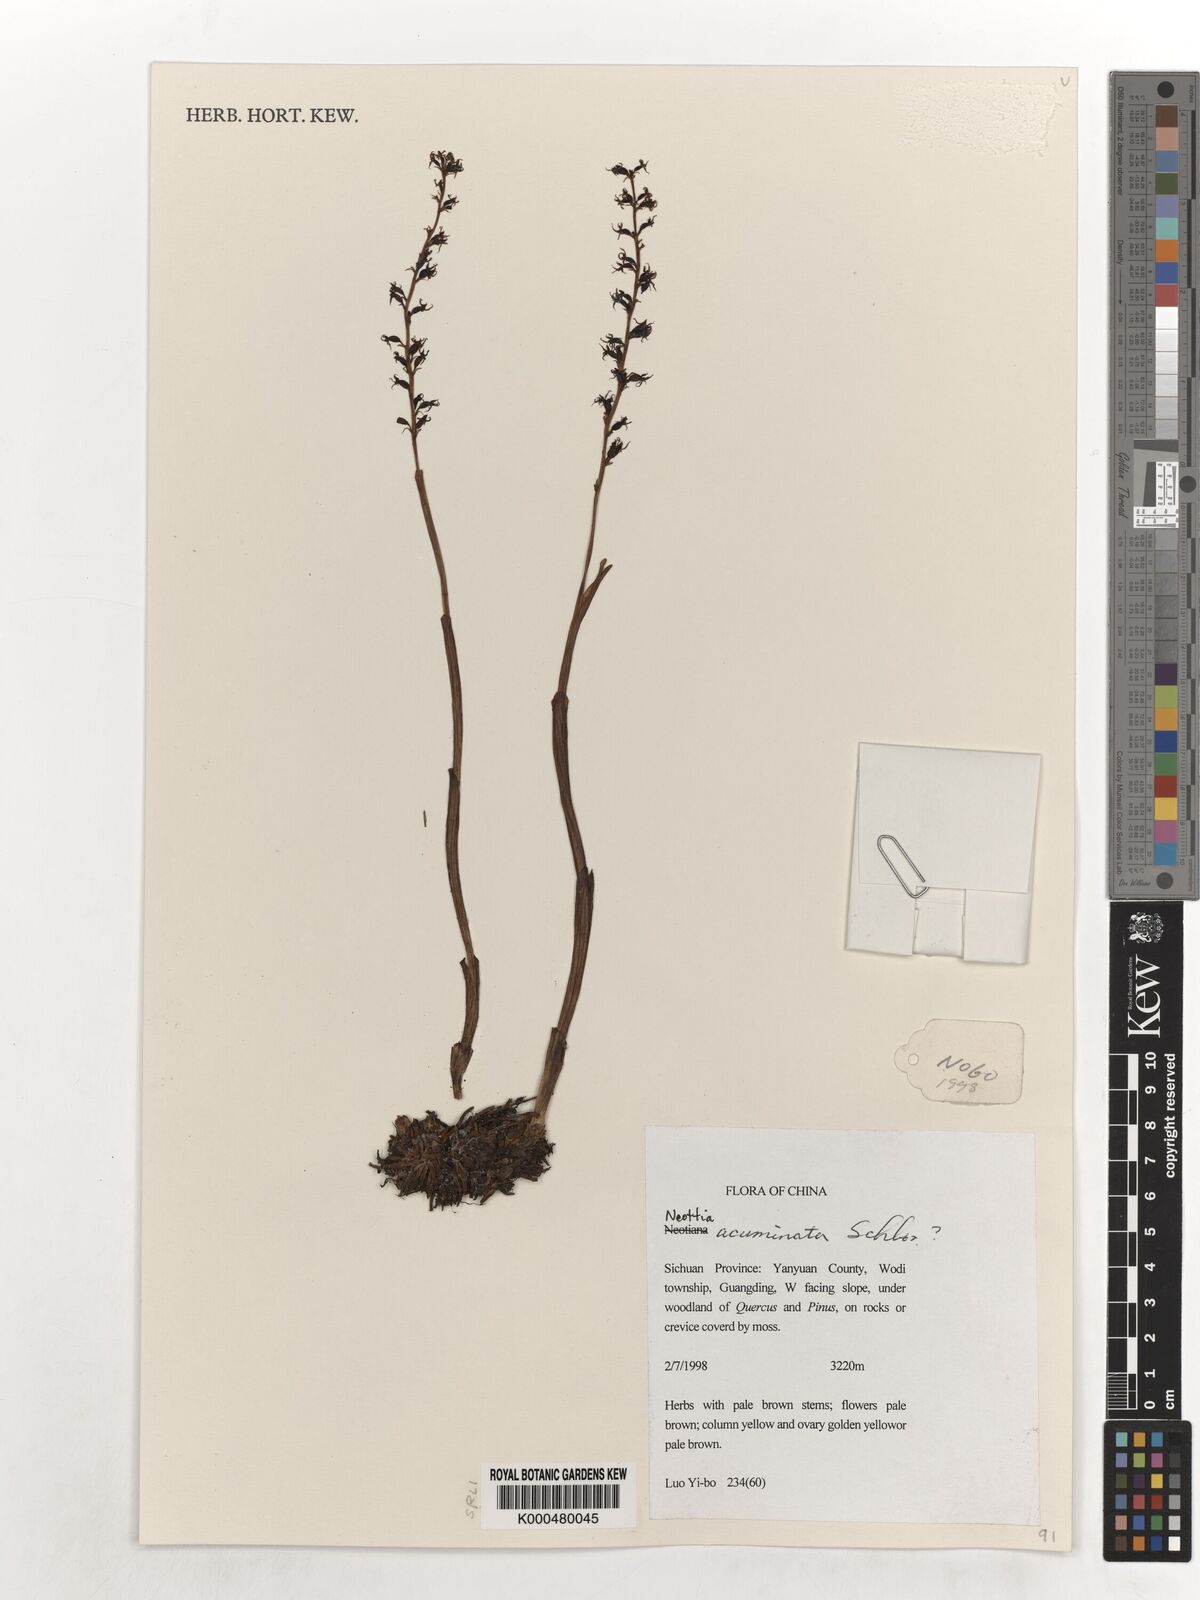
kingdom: Plantae
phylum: Tracheophyta
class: Liliopsida
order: Asparagales
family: Orchidaceae
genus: Neottia
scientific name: Neottia acuminata
